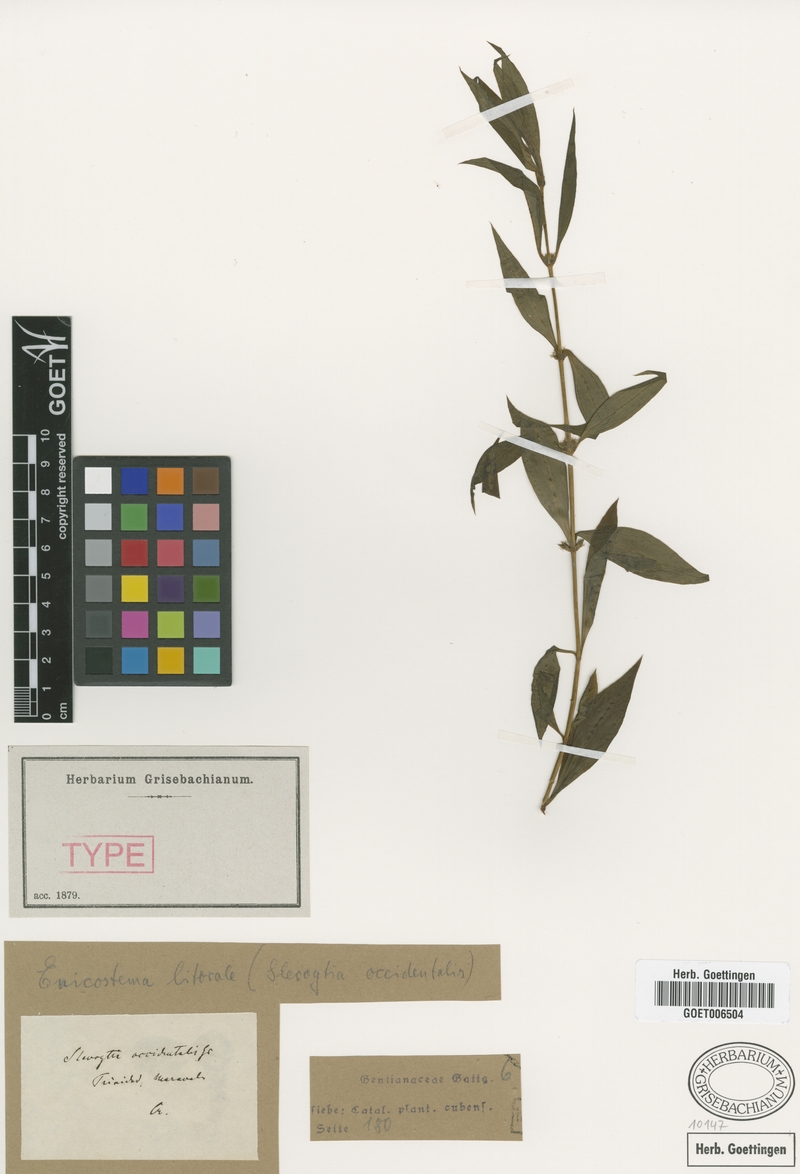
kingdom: Plantae
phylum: Tracheophyta
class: Magnoliopsida
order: Gentianales
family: Gentianaceae
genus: Enicostema
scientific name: Enicostema verticillatum
